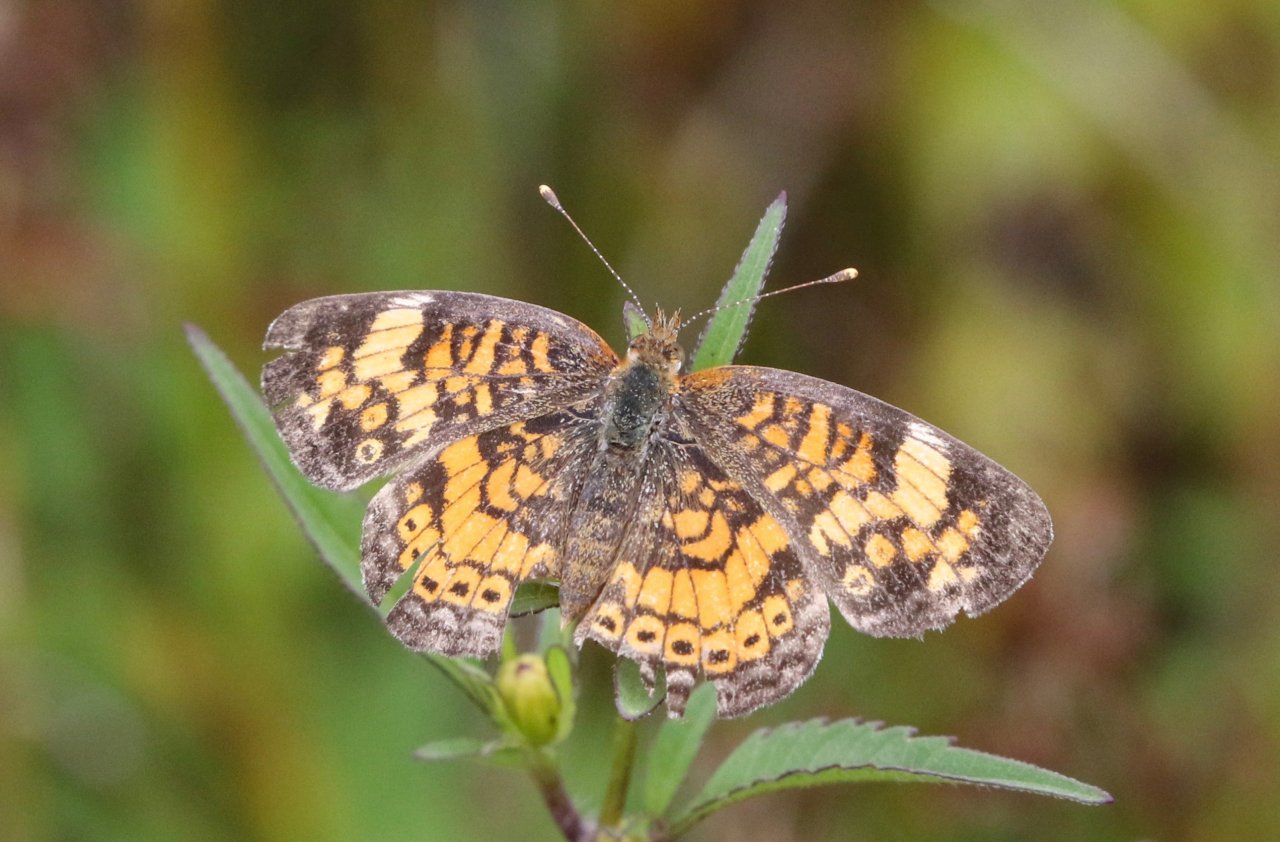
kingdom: Animalia
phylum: Arthropoda
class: Insecta
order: Lepidoptera
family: Nymphalidae
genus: Phyciodes
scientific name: Phyciodes tharos
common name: Pearl Crescent
